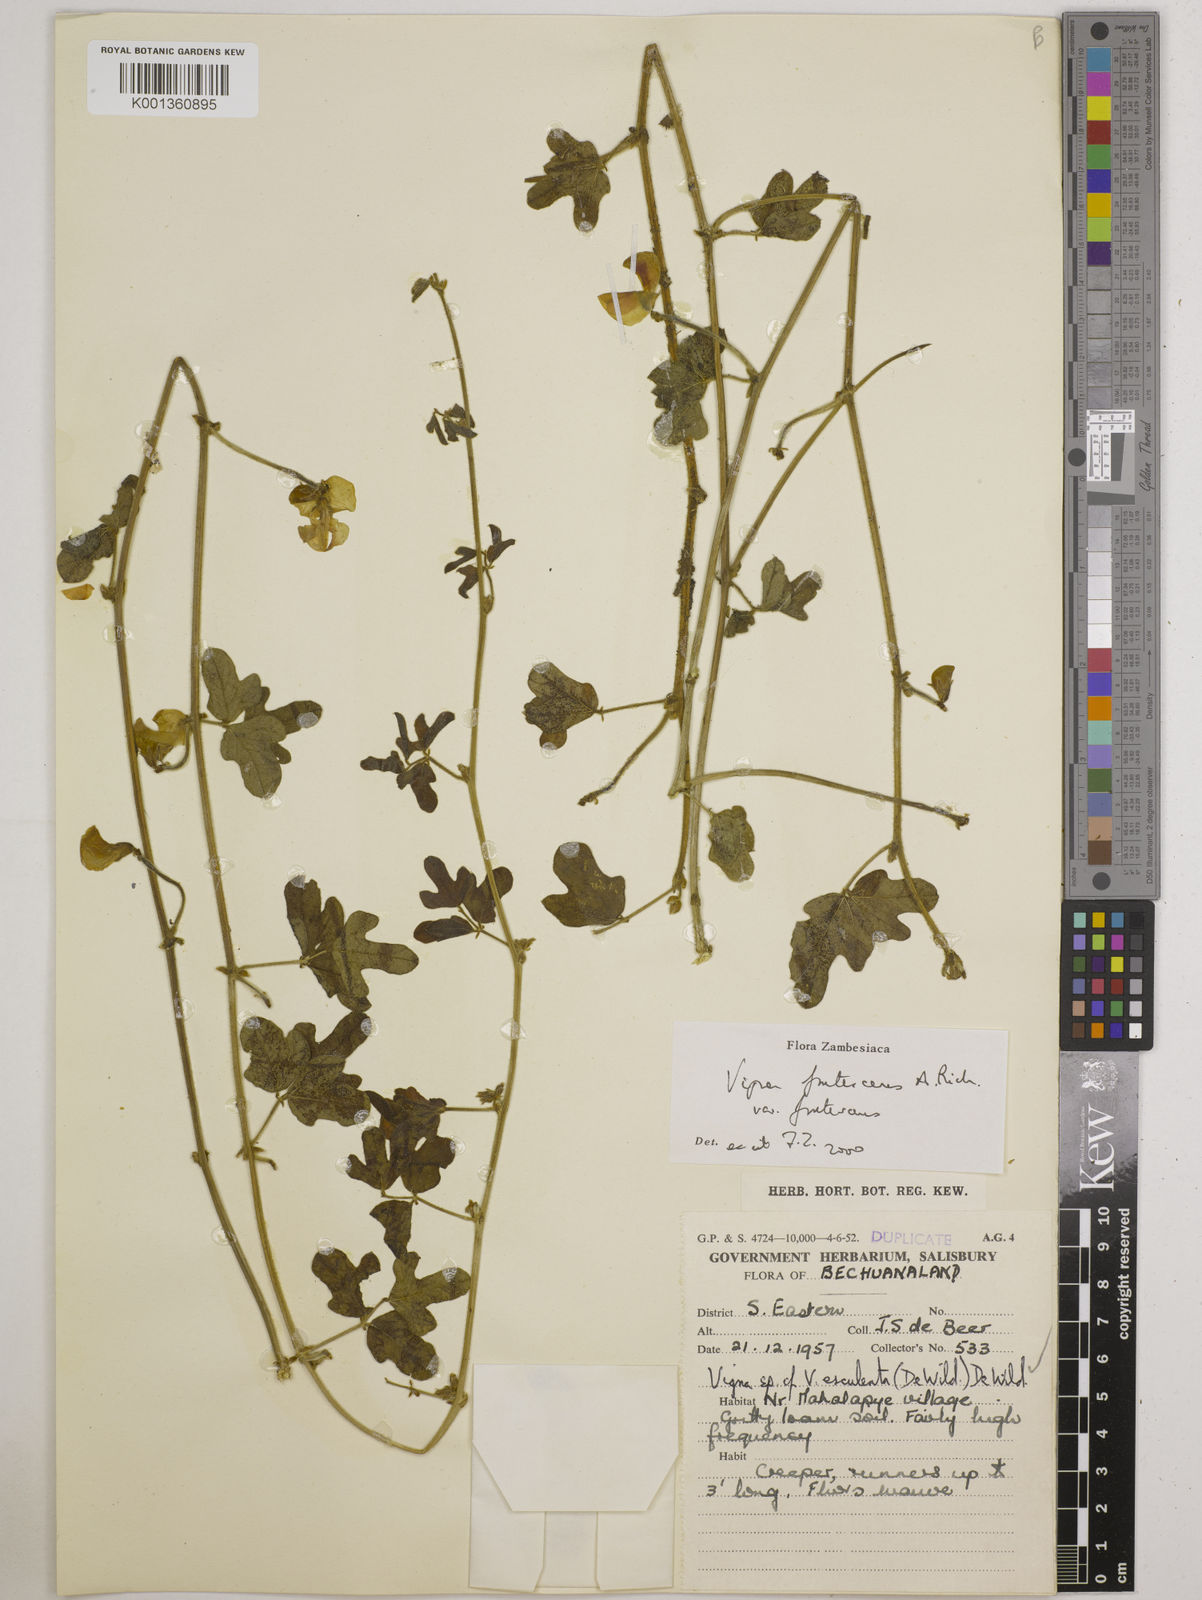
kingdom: Plantae
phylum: Tracheophyta
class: Magnoliopsida
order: Fabales
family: Fabaceae
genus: Vigna
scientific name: Vigna frutescens
